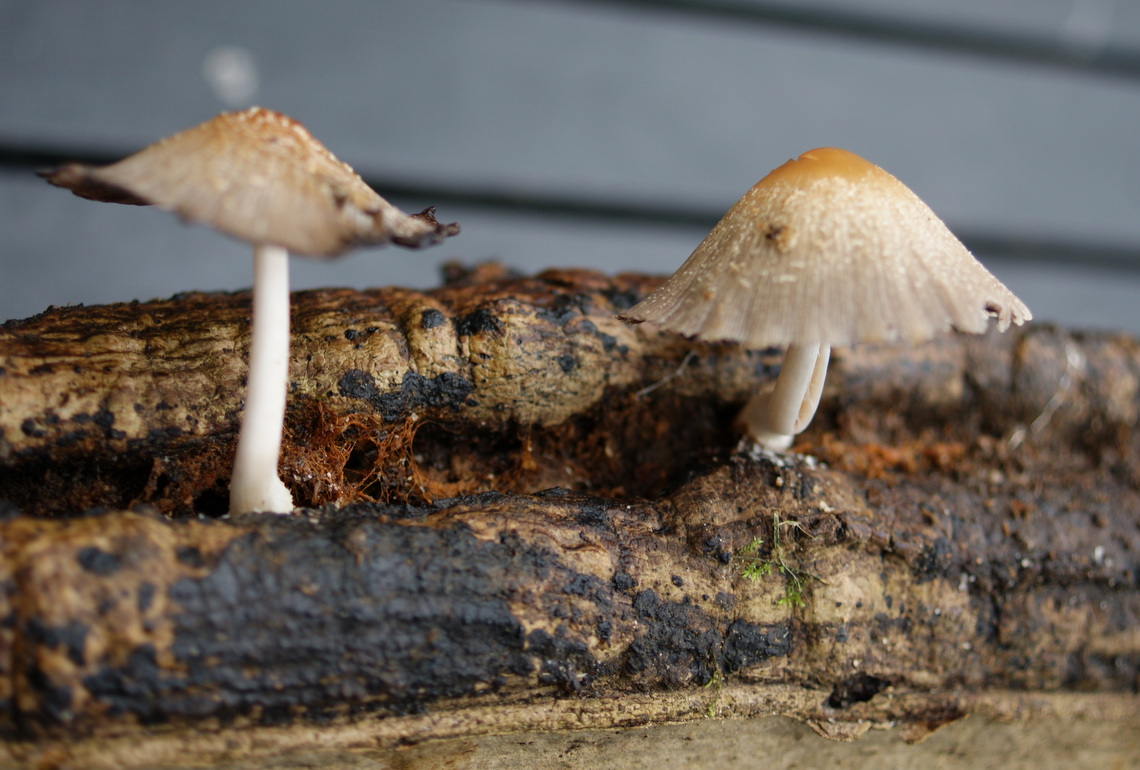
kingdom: Fungi
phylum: Basidiomycota
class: Agaricomycetes
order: Agaricales
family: Psathyrellaceae
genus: Coprinellus
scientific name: Coprinellus domesticus
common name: hus-blækhat
